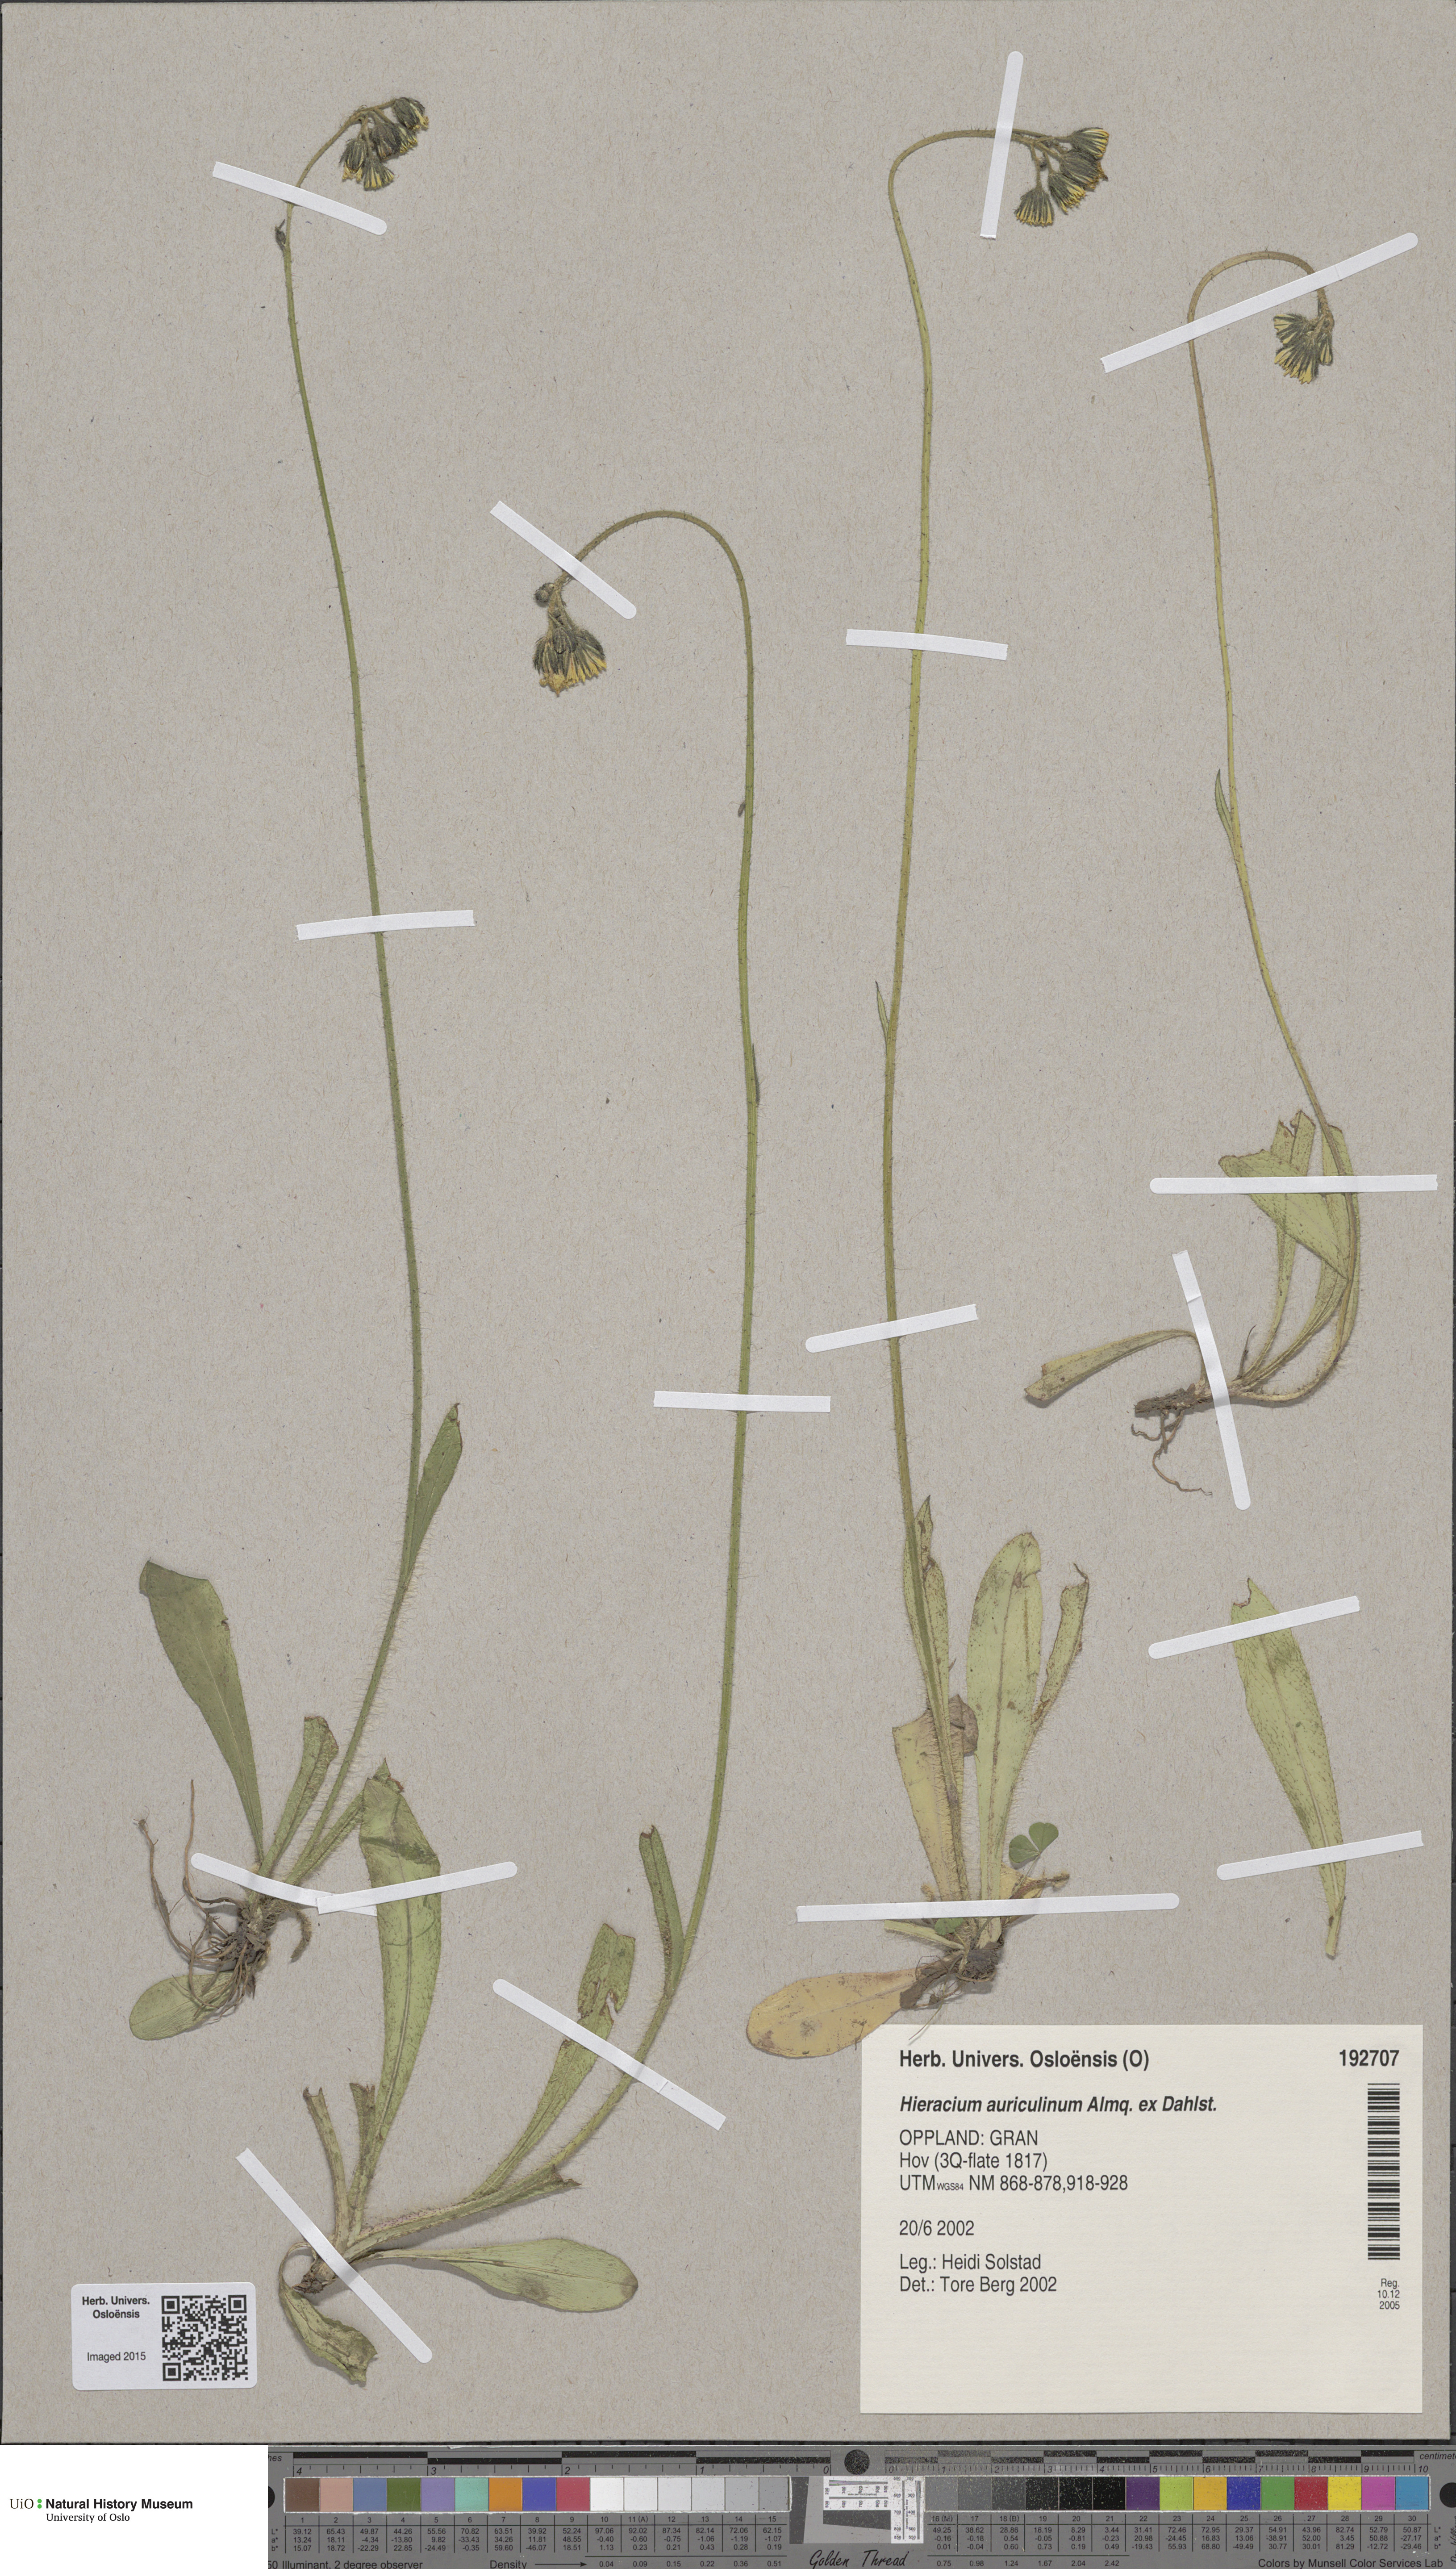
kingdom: Plantae
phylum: Tracheophyta
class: Magnoliopsida
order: Asterales
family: Asteraceae
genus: Pilosella
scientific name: Pilosella dubia
